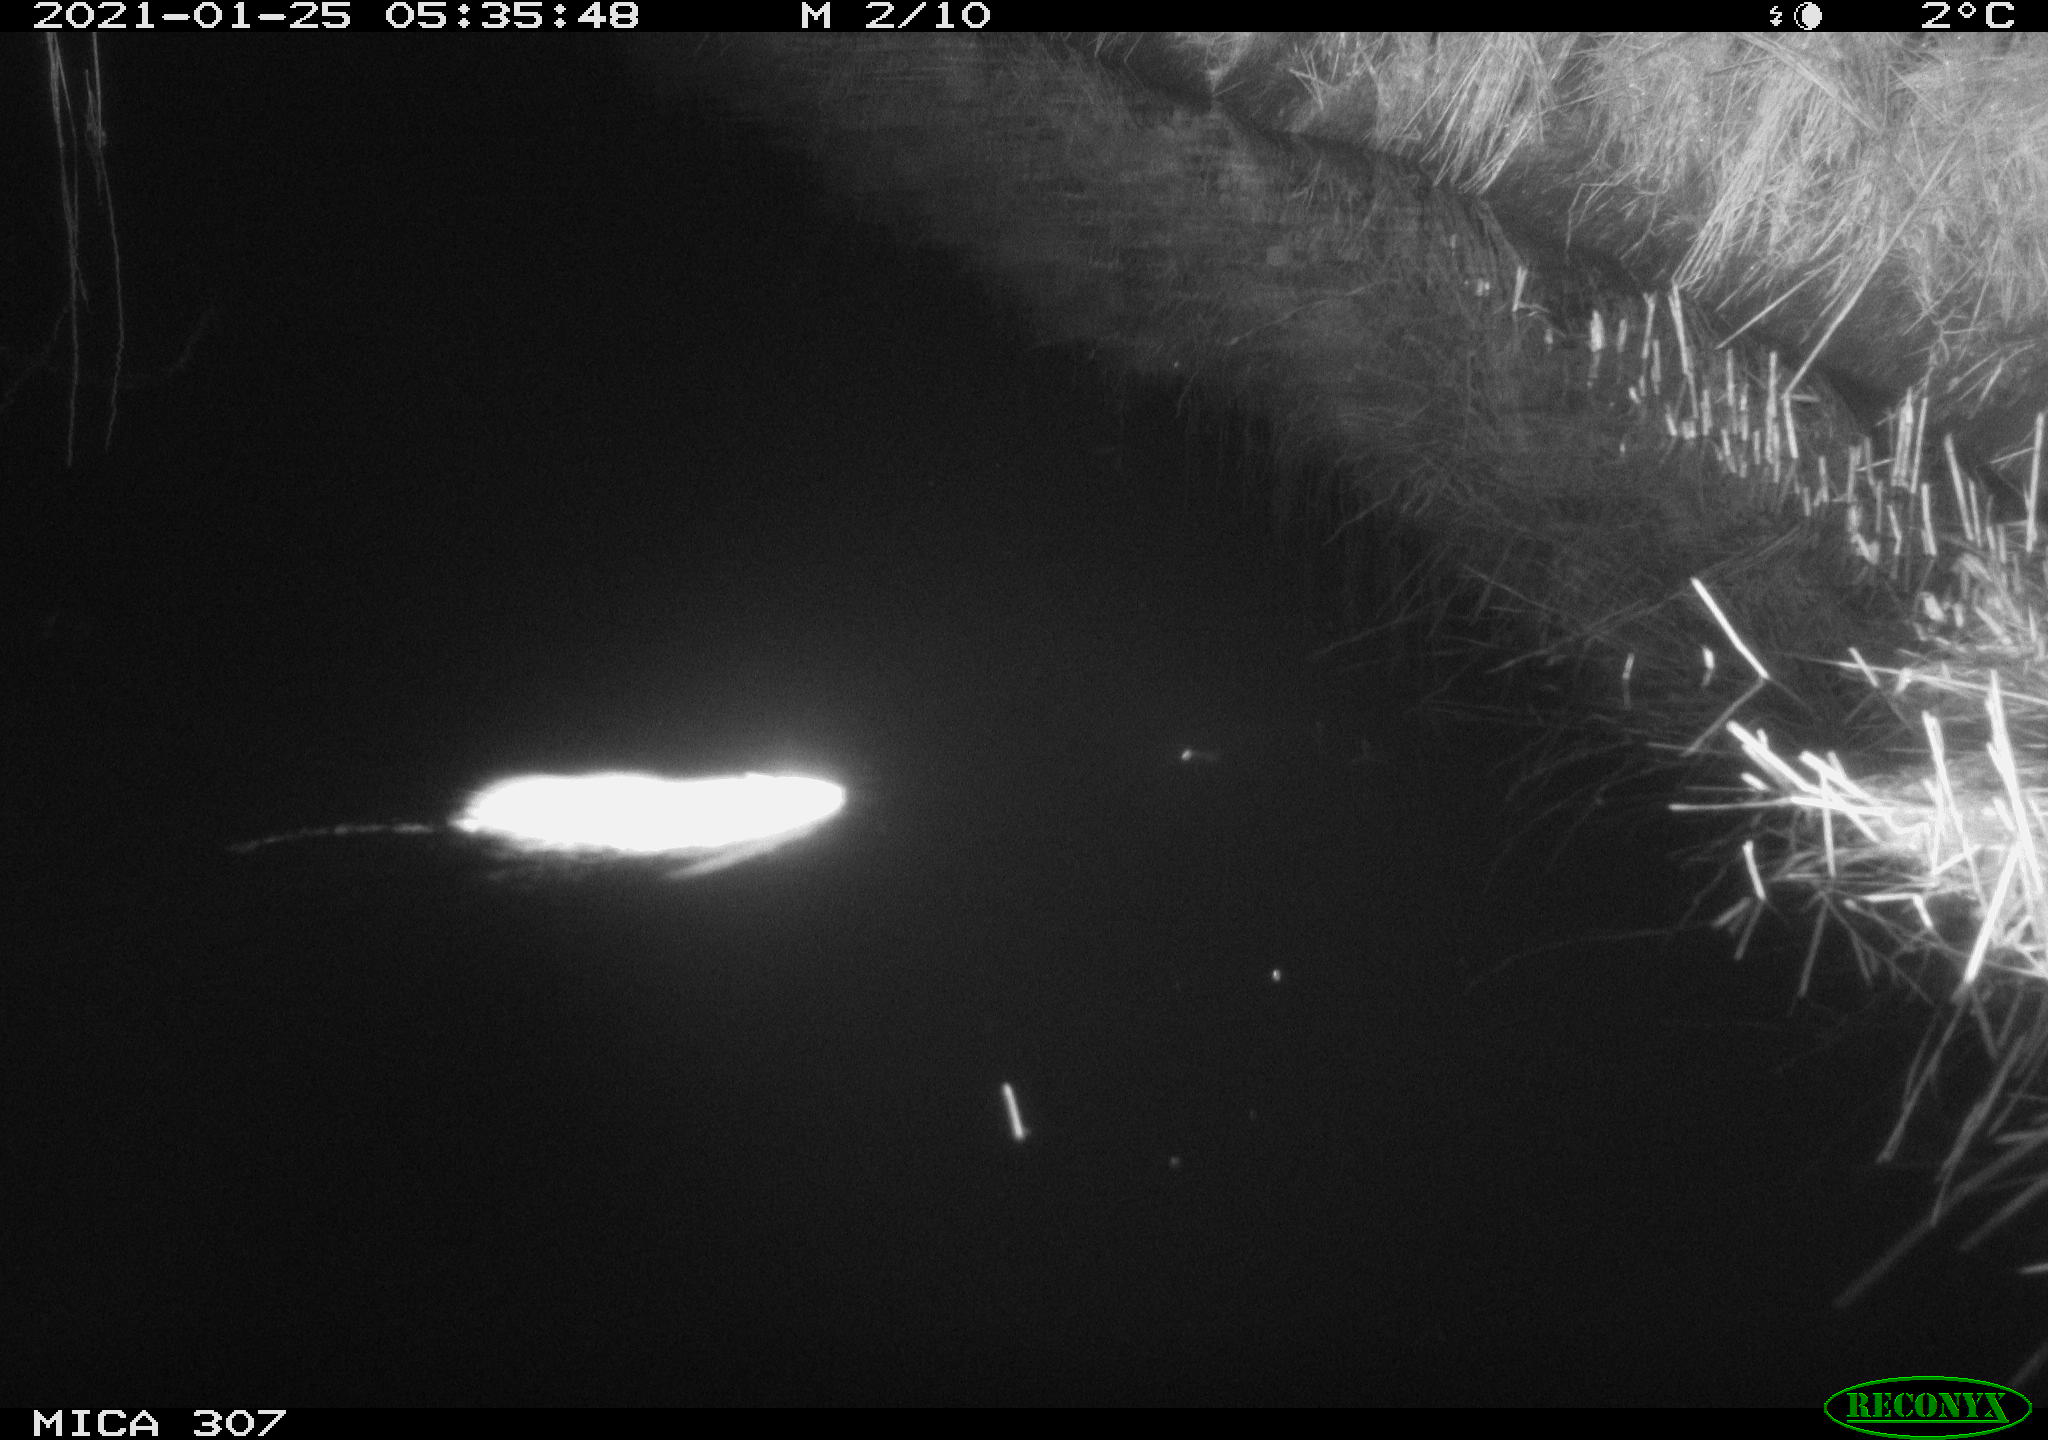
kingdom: Animalia
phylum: Chordata
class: Mammalia
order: Rodentia
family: Muridae
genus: Rattus
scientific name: Rattus norvegicus
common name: Brown rat
